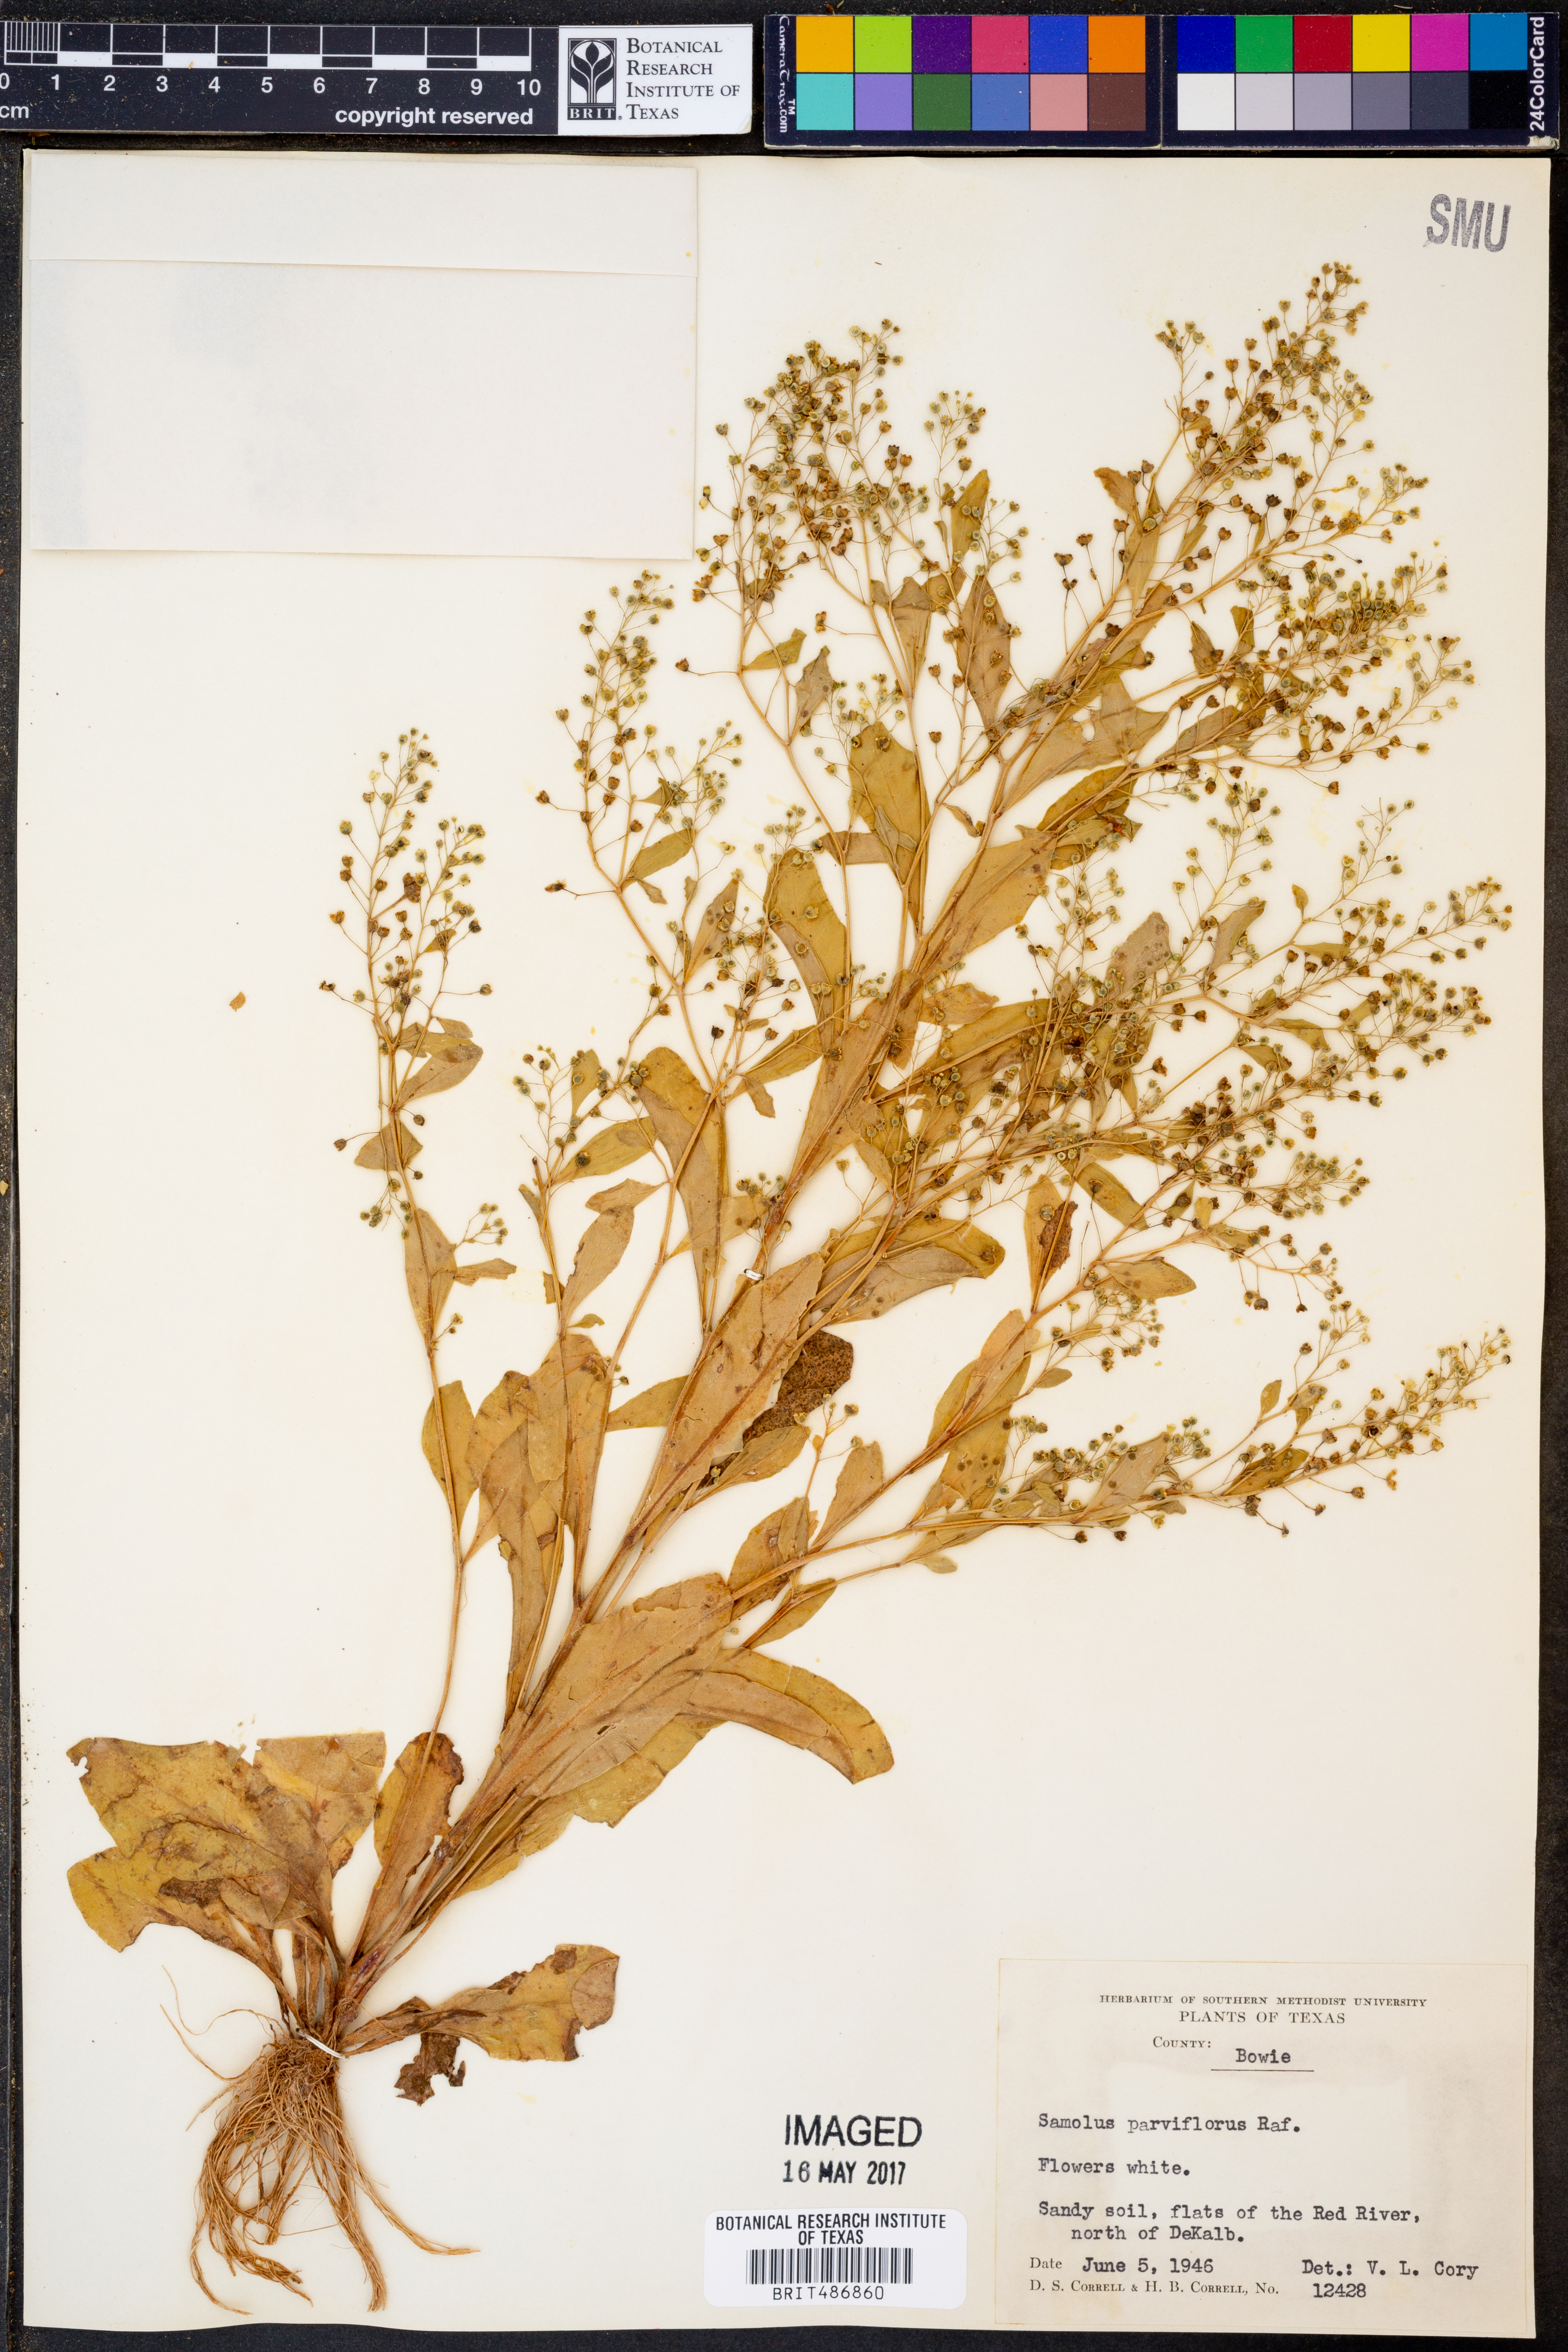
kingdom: Plantae
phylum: Tracheophyta
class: Magnoliopsida
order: Ericales
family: Primulaceae
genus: Samolus
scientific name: Samolus parviflorus
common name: False water pimpernel
